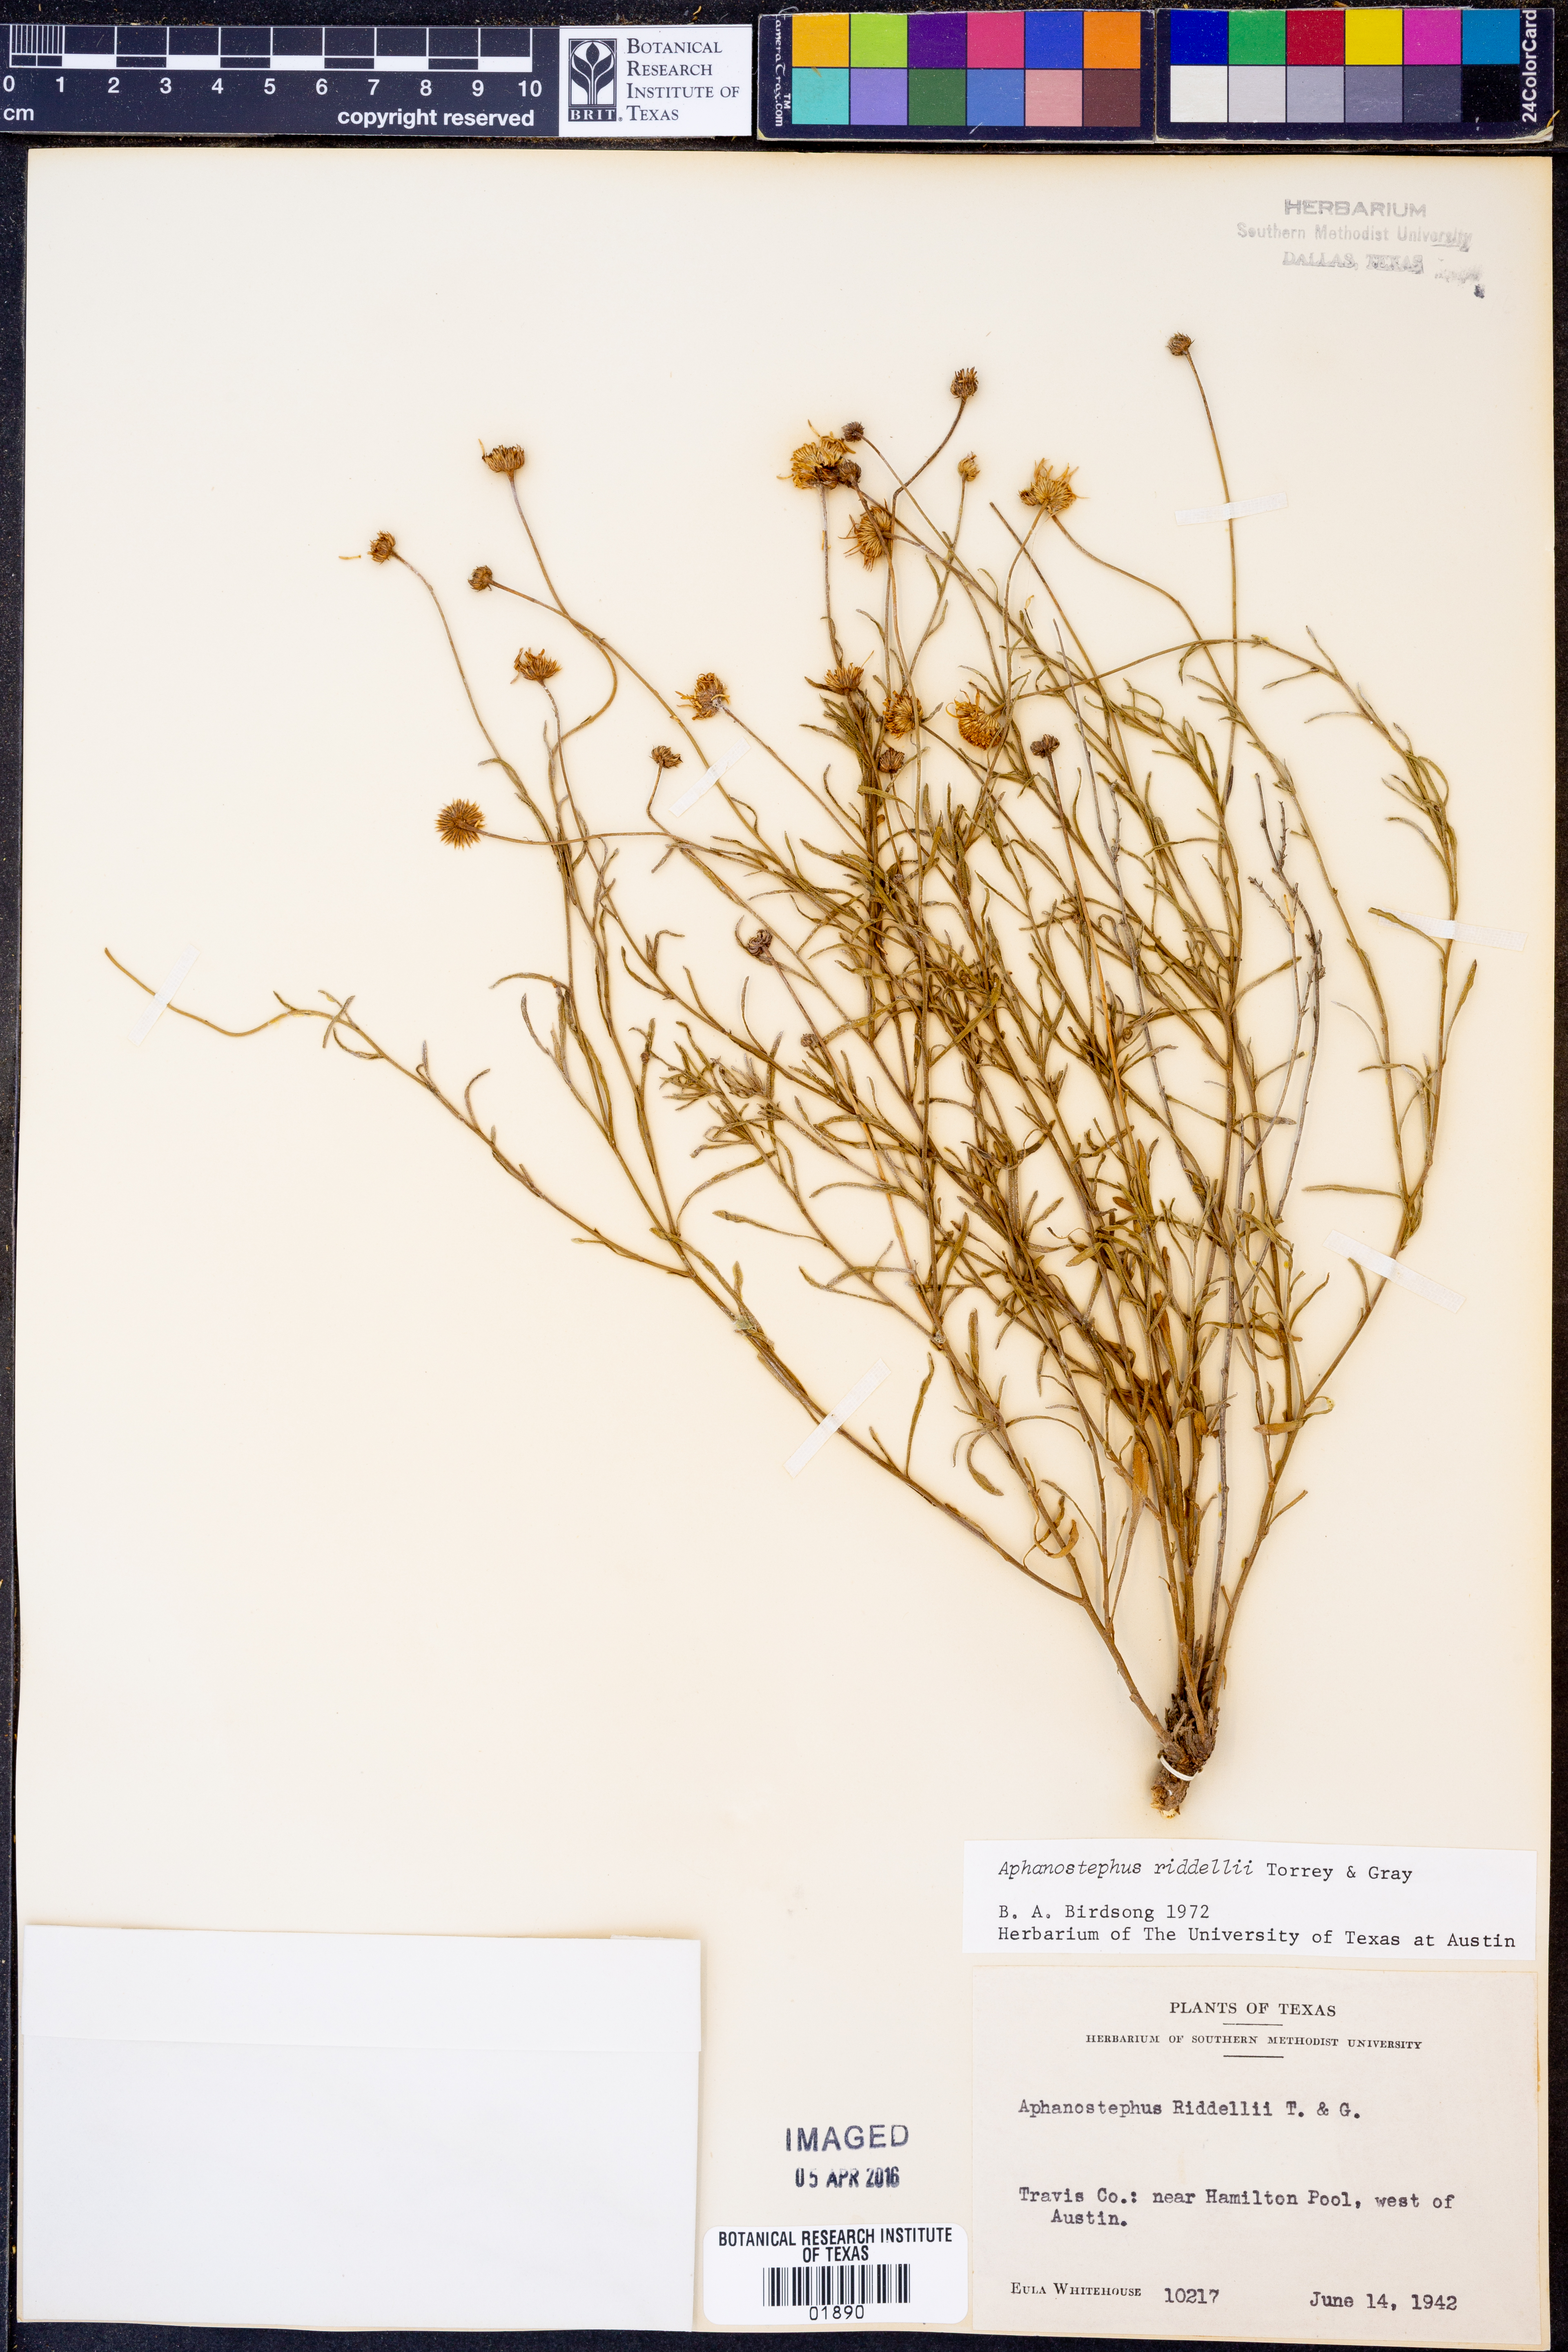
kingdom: Plantae
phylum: Tracheophyta
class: Magnoliopsida
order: Asterales
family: Asteraceae
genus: Aphanostephus
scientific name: Aphanostephus riddellii
